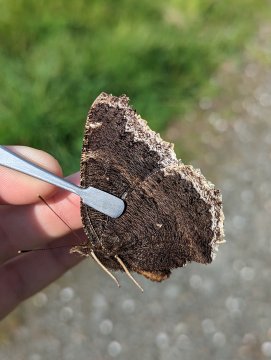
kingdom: Animalia
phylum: Arthropoda
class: Insecta
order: Lepidoptera
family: Nymphalidae
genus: Nymphalis
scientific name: Nymphalis antiopa
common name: Mourning Cloak
